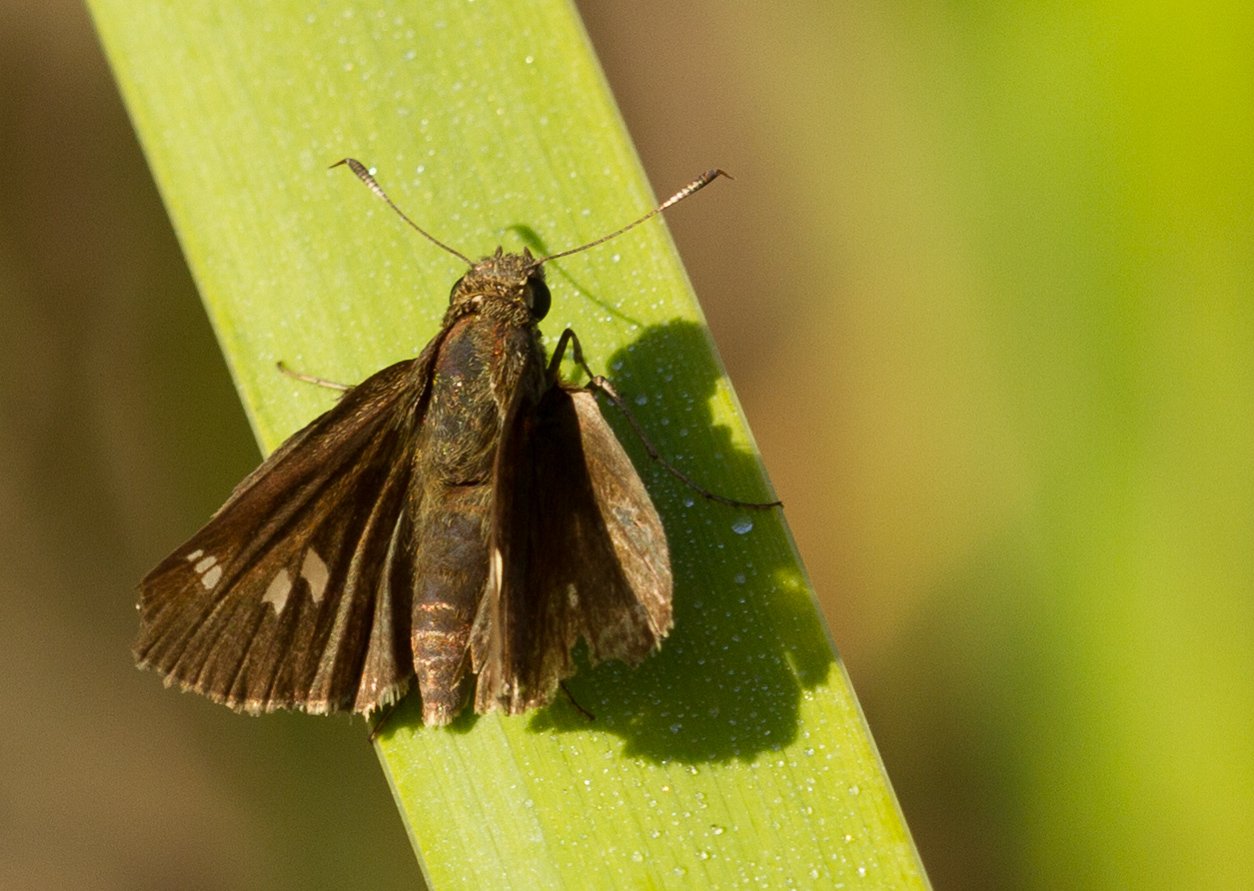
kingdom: Animalia
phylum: Arthropoda
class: Insecta
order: Lepidoptera
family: Hesperiidae
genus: Oligoria
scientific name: Oligoria maculata
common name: Twin-spot Skipper
